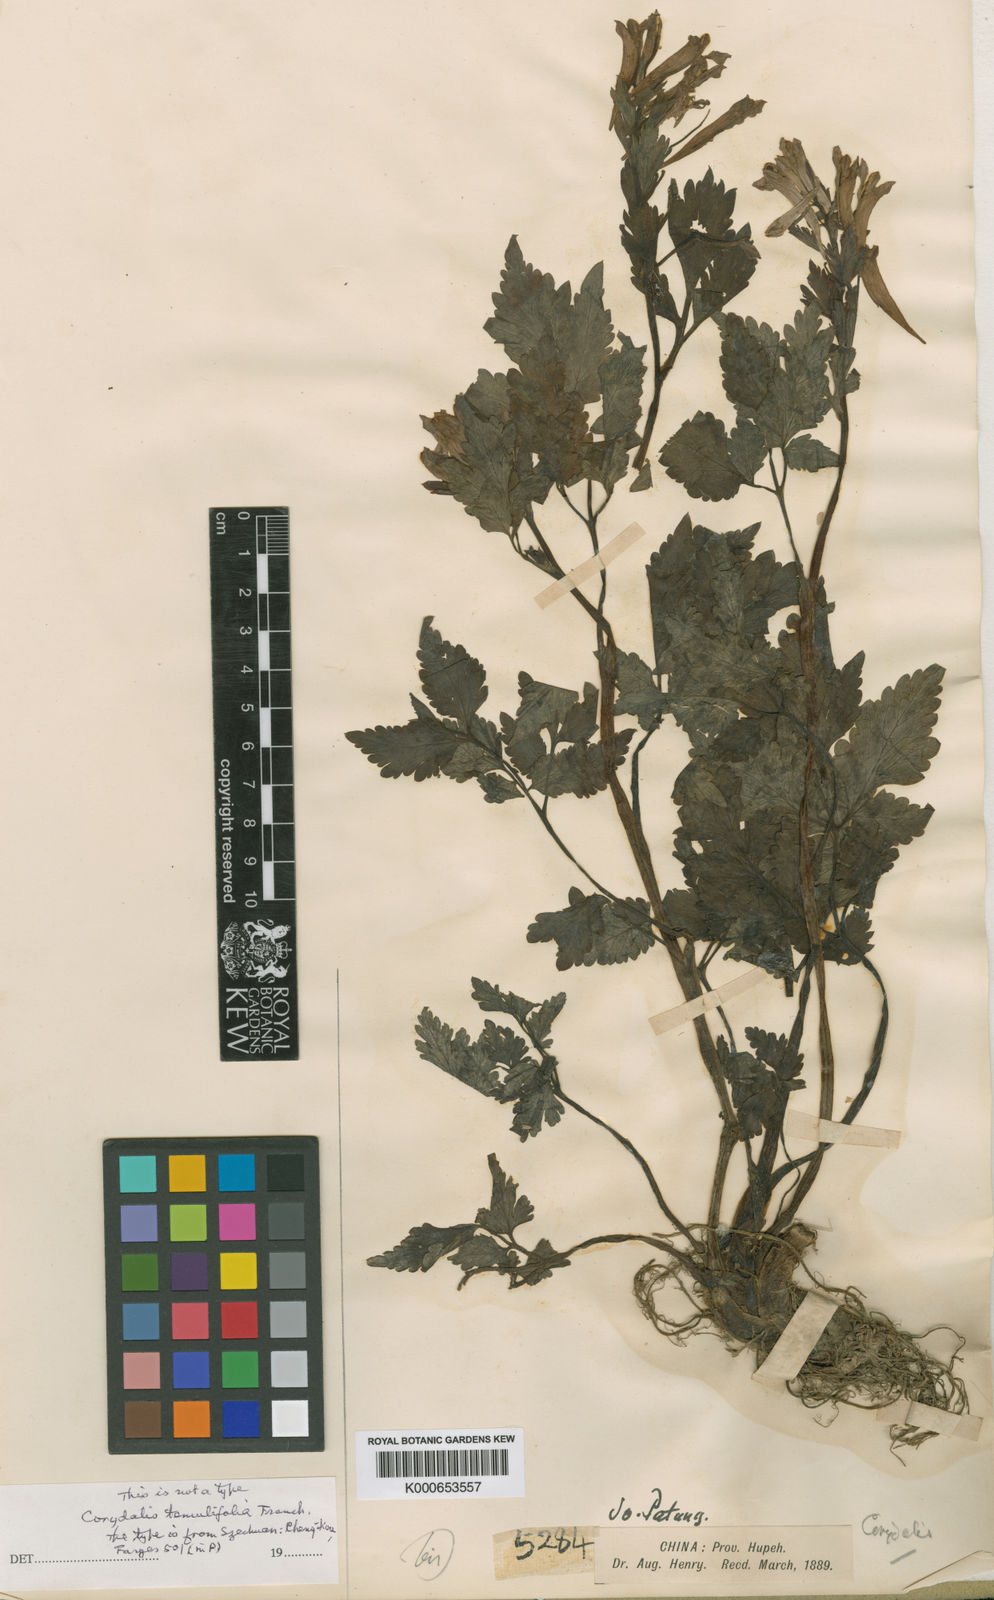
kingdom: Plantae
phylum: Tracheophyta
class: Magnoliopsida
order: Ranunculales
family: Papaveraceae
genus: Corydalis
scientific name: Corydalis temulifolia
